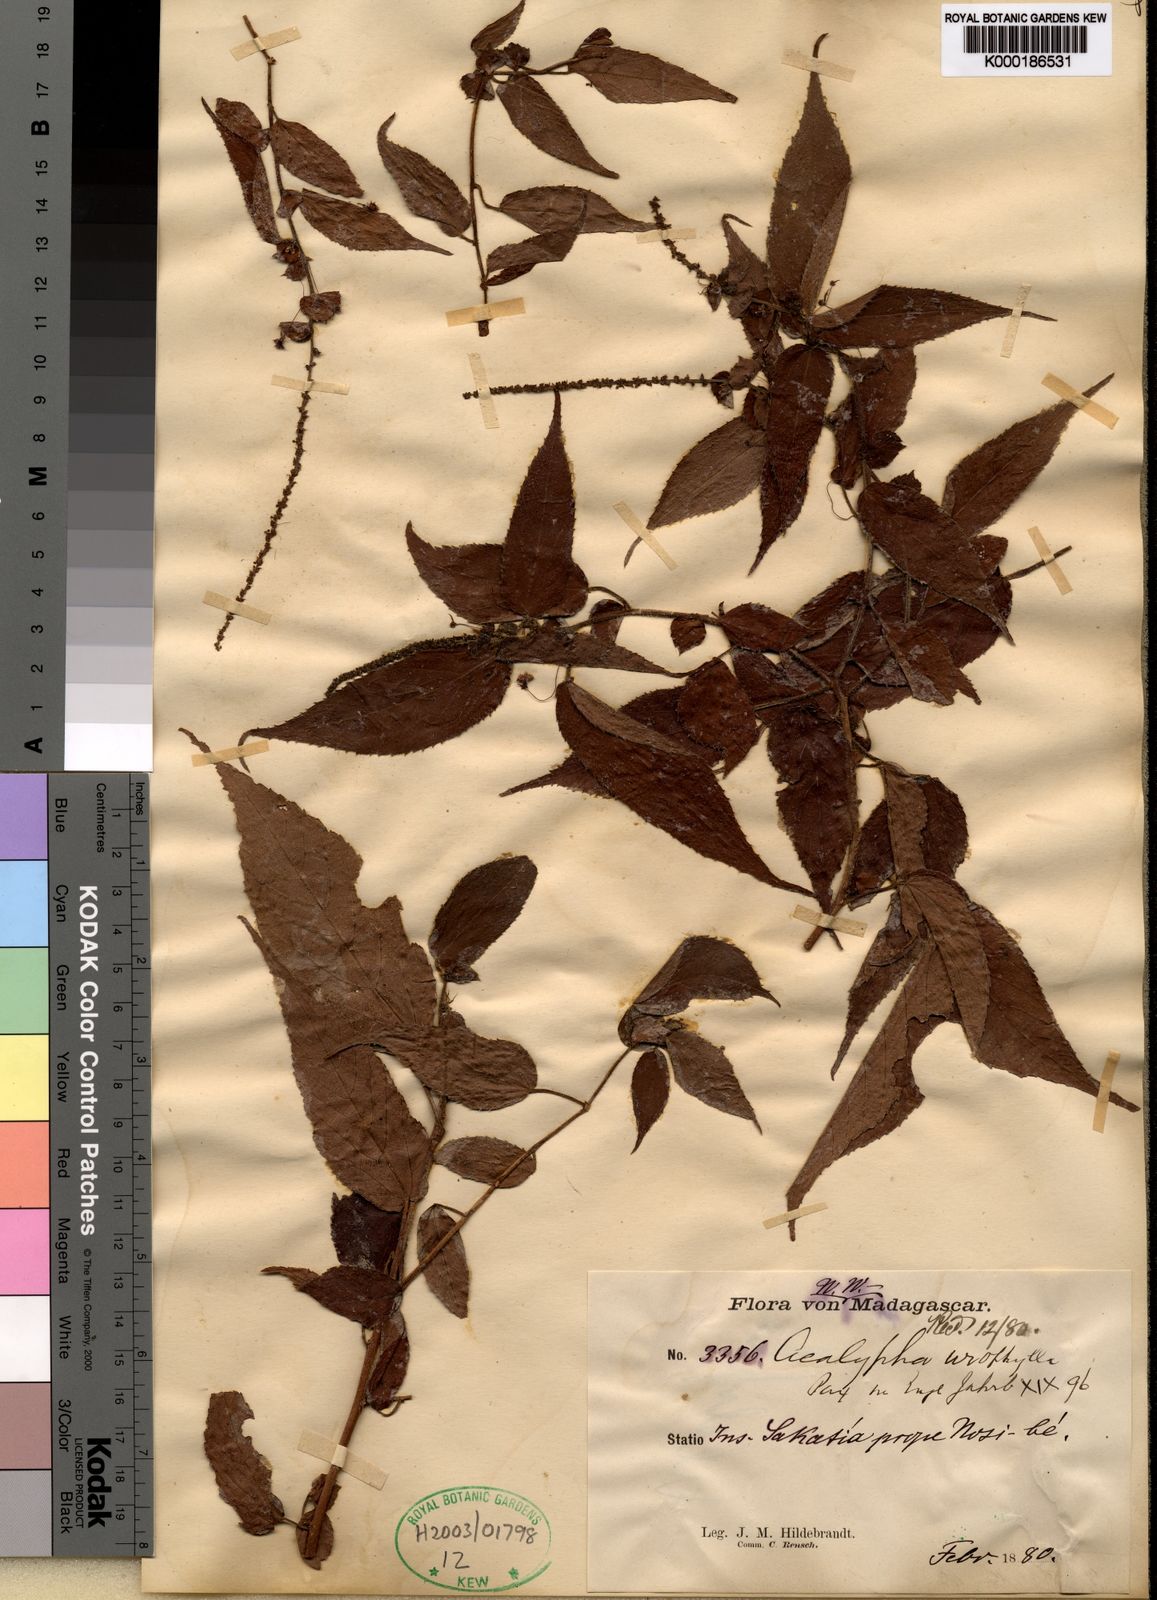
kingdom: Plantae
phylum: Tracheophyta
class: Magnoliopsida
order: Malpighiales
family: Euphorbiaceae
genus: Acalypha
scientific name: Acalypha
